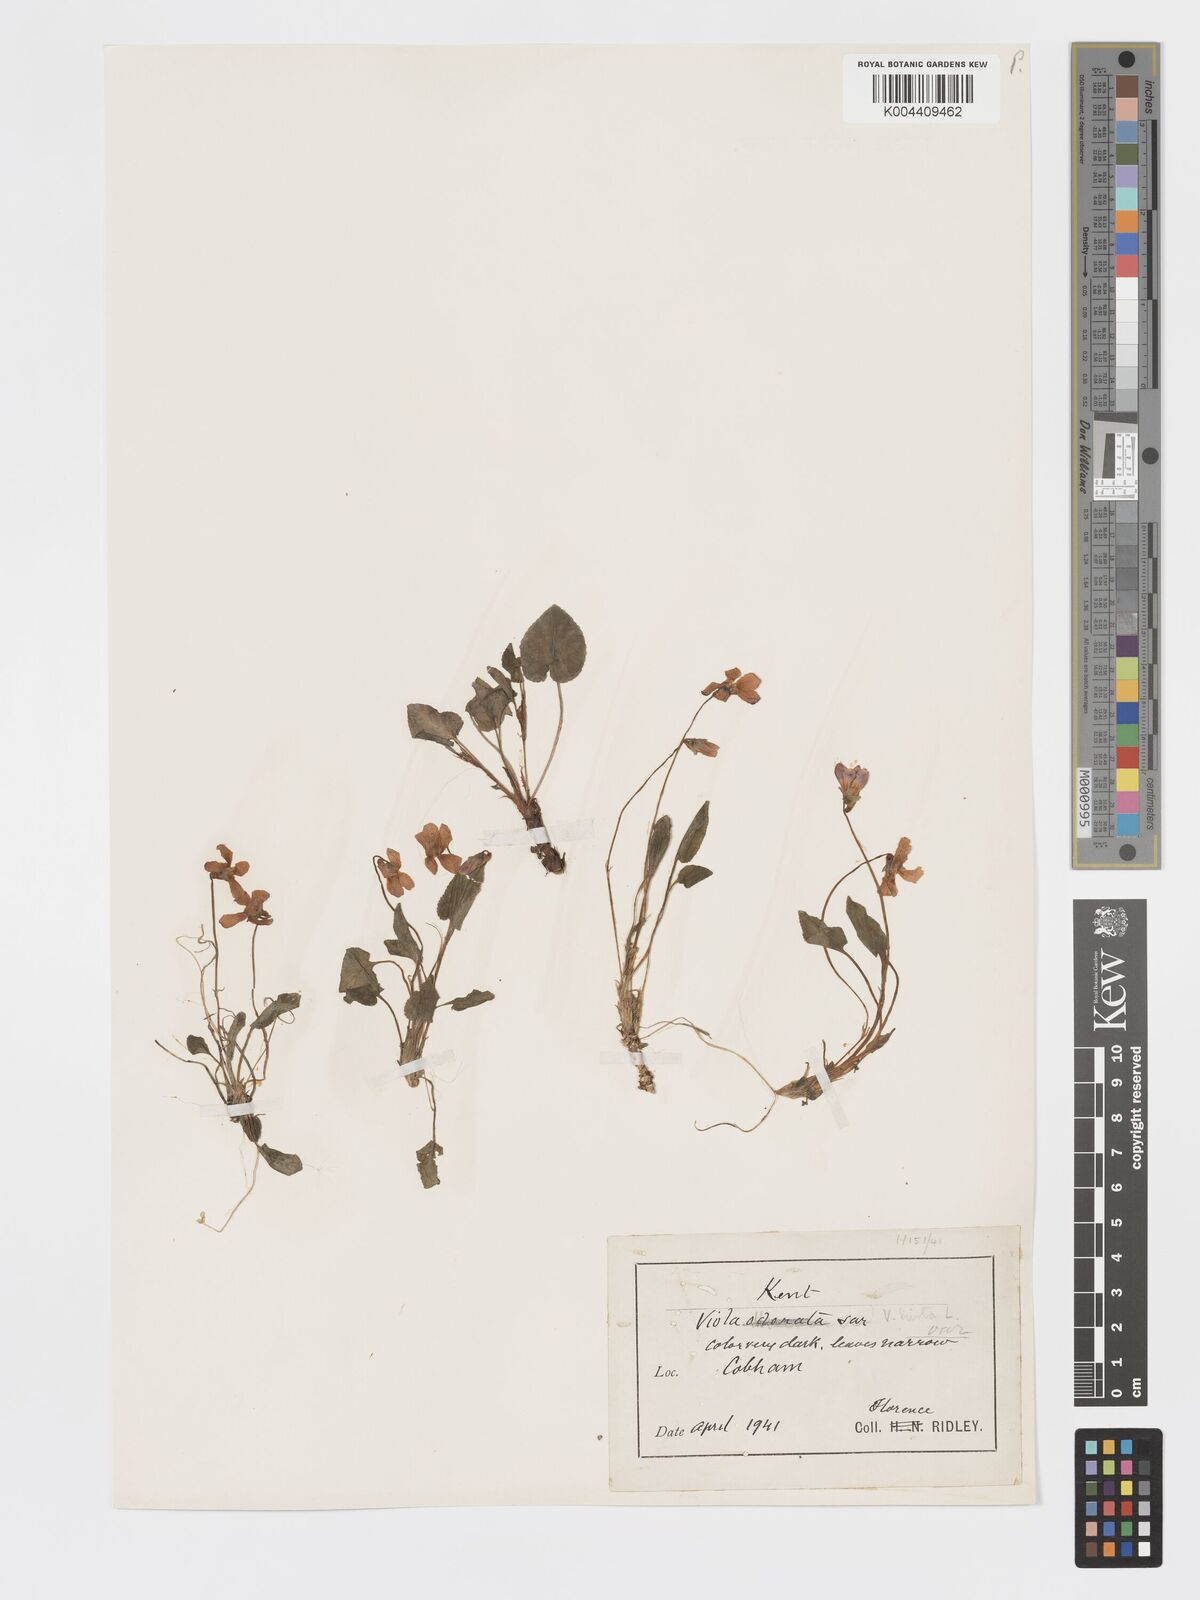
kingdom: Plantae
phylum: Tracheophyta
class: Magnoliopsida
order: Malpighiales
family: Violaceae
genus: Viola
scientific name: Viola
